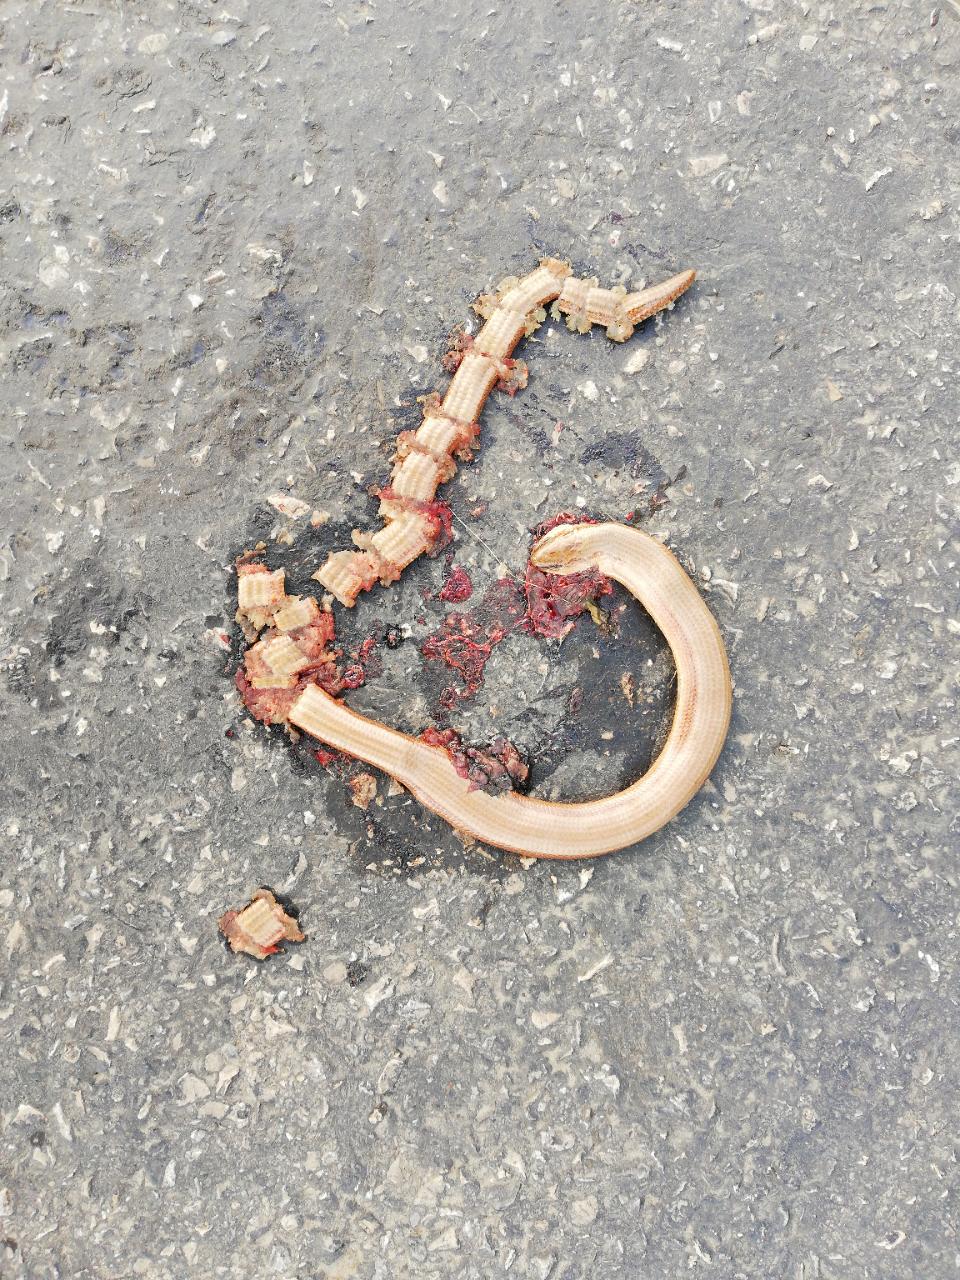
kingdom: Animalia
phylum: Chordata
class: Squamata
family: Anguidae
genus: Anguis
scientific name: Anguis fragilis
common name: Slow worm
